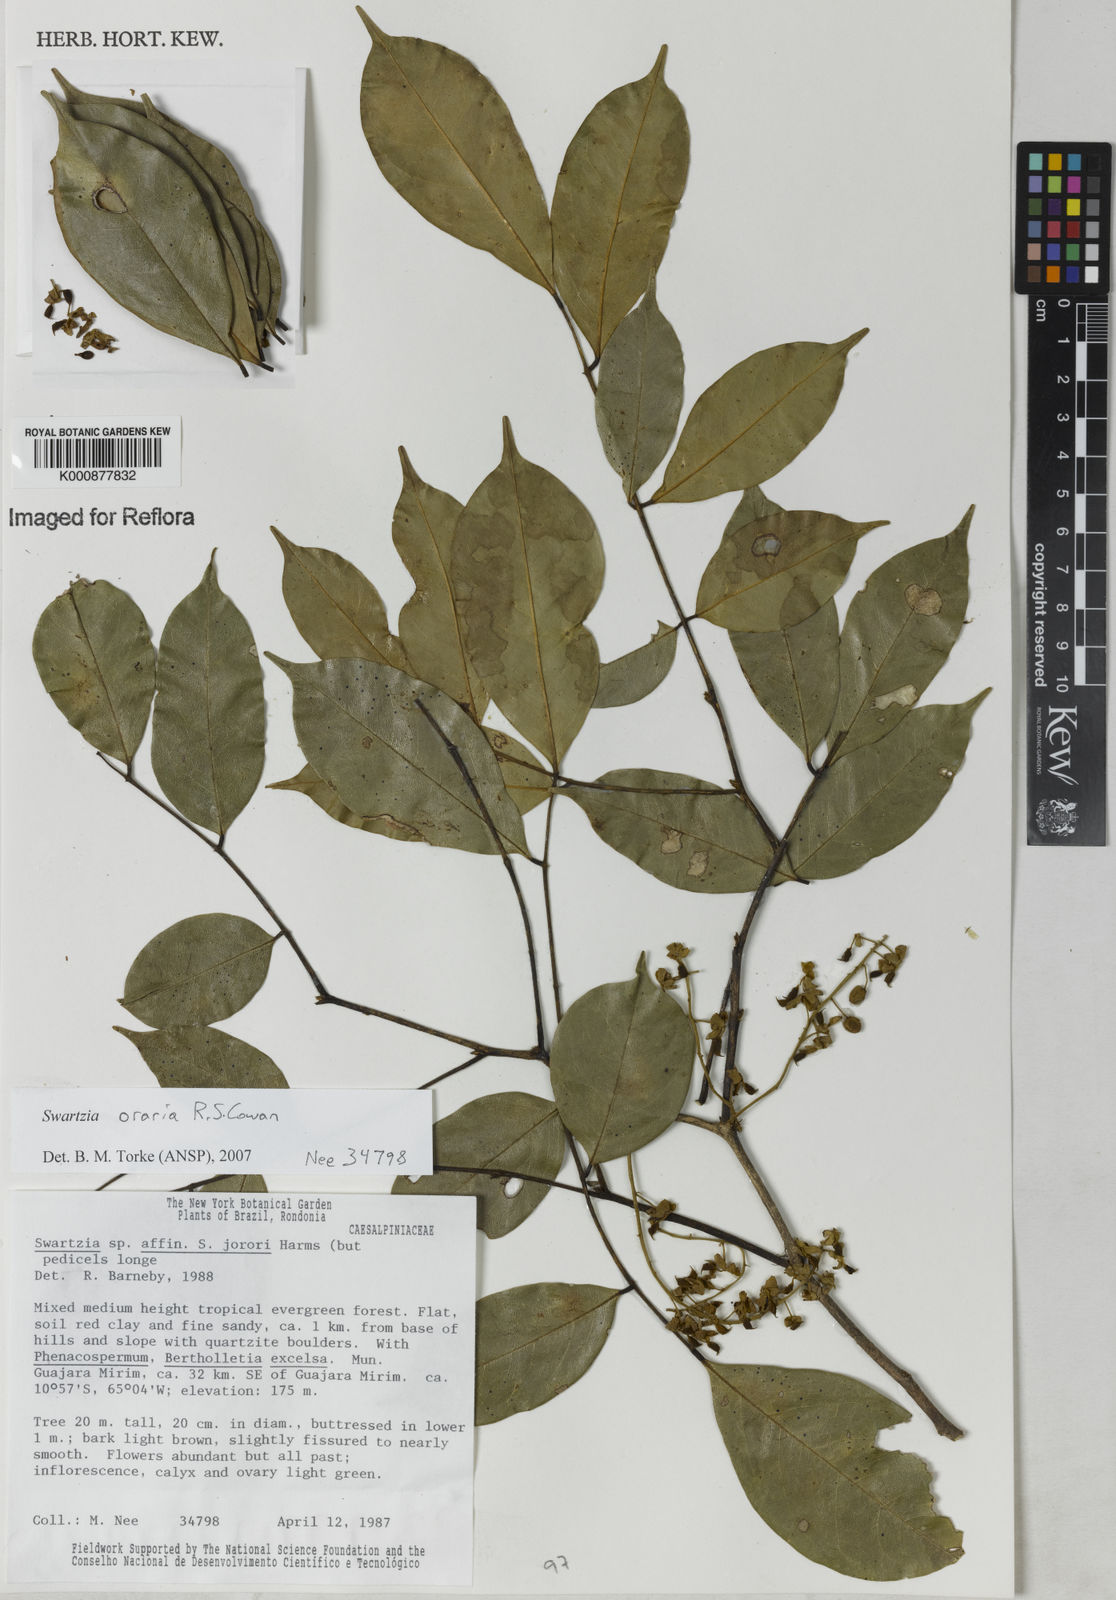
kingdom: Plantae
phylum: Tracheophyta
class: Magnoliopsida
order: Fabales
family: Fabaceae
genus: Swartzia
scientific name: Swartzia oraria
